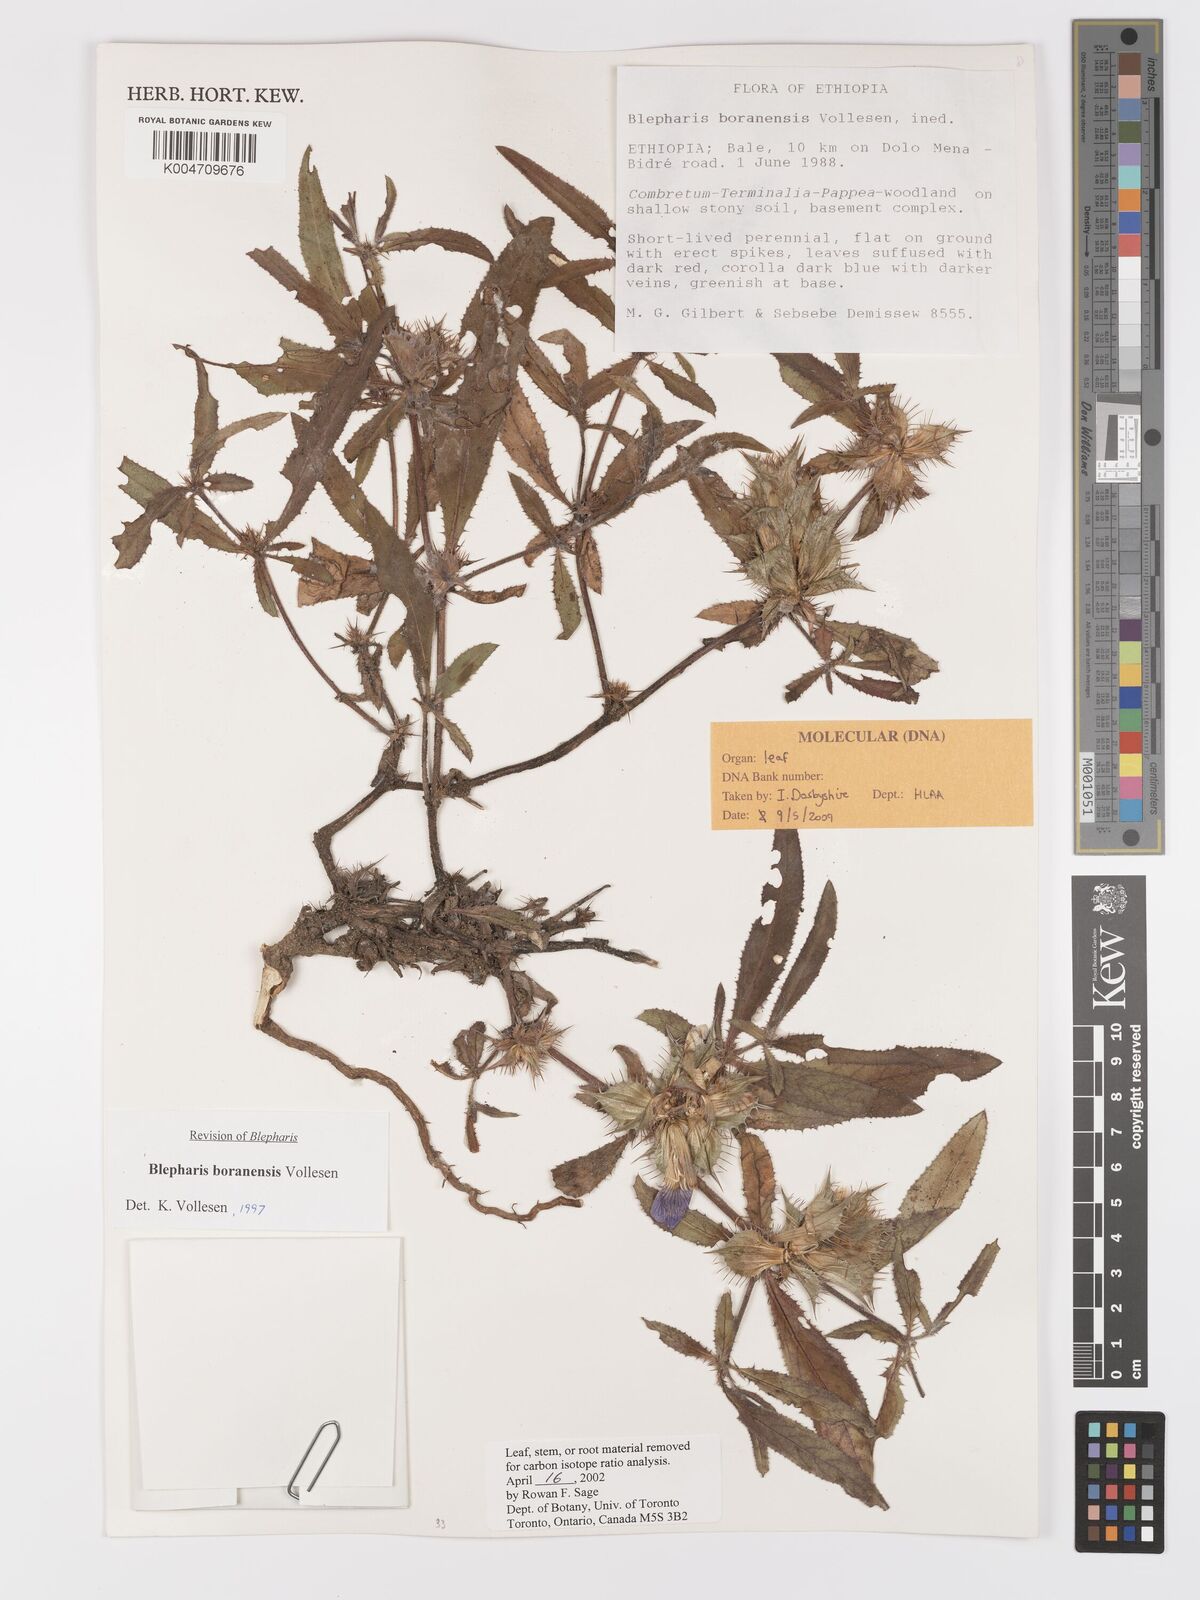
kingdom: Plantae
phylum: Tracheophyta
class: Magnoliopsida
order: Lamiales
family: Acanthaceae
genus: Blepharis
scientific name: Blepharis boranensis
